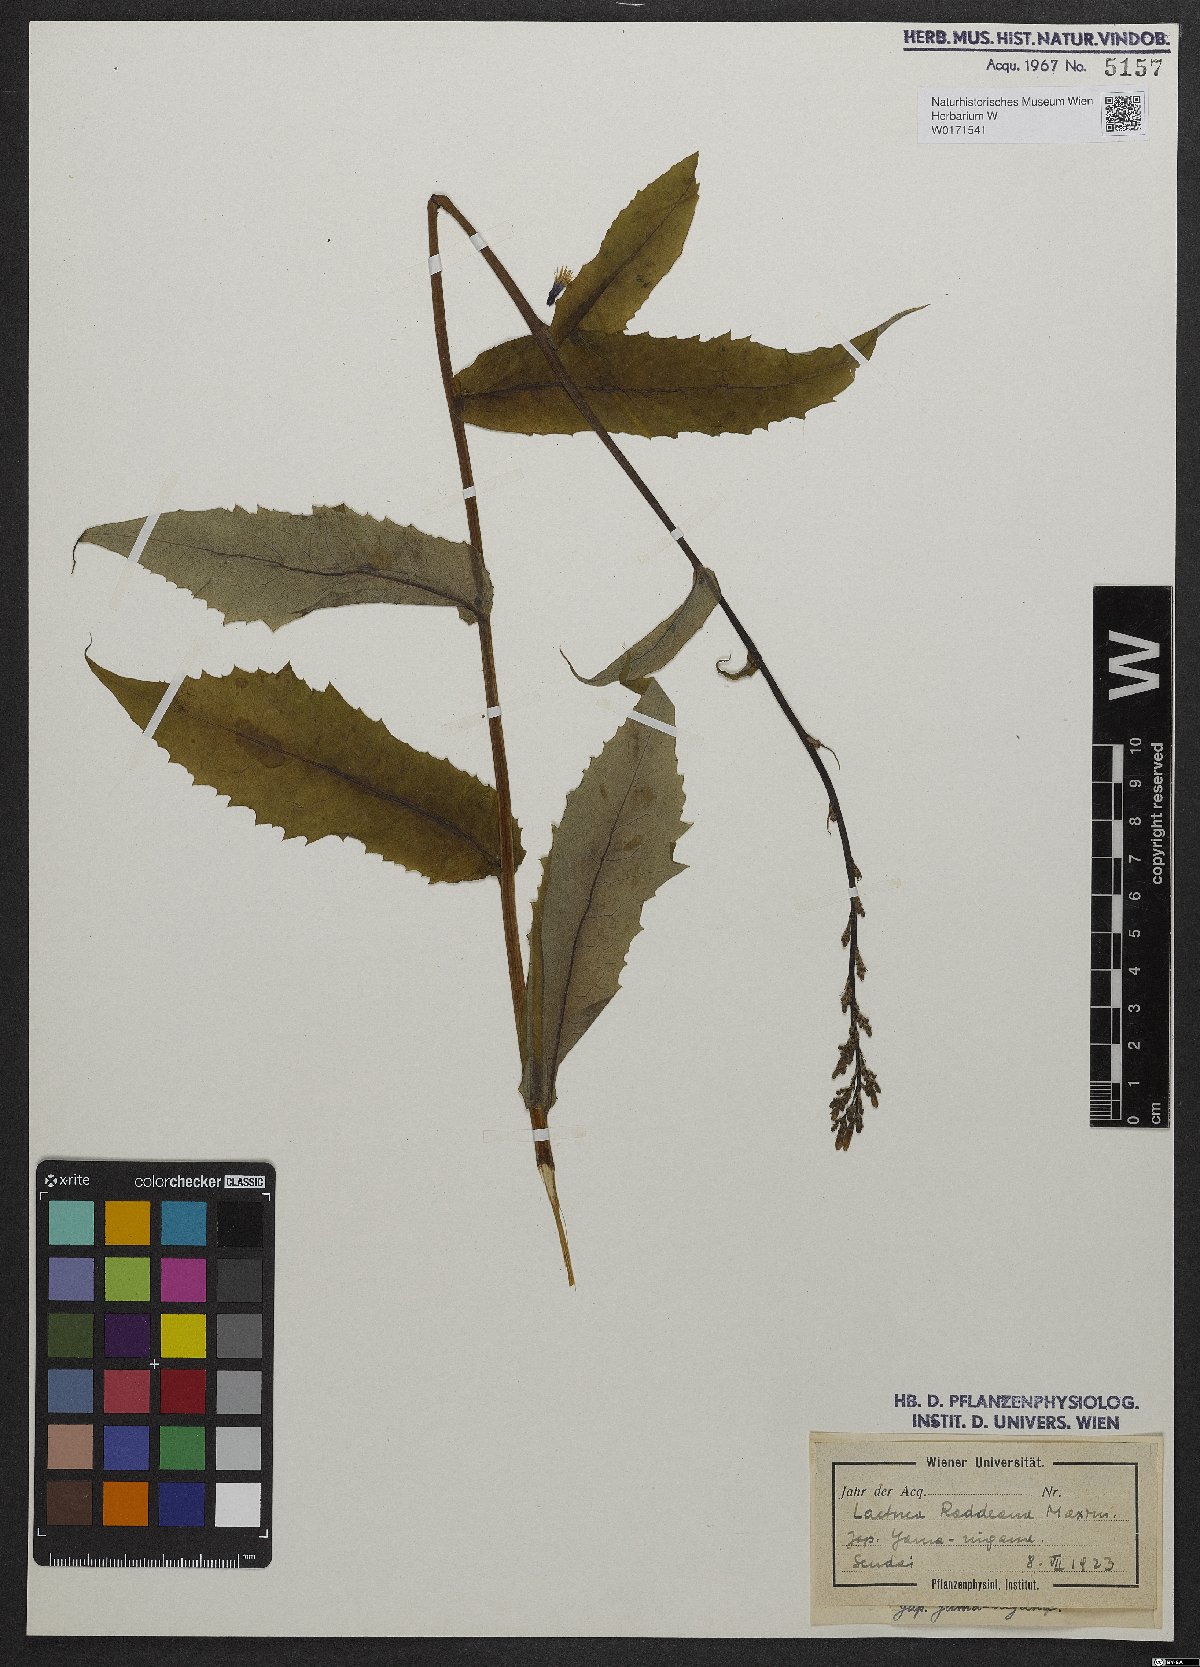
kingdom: Plantae
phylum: Tracheophyta
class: Magnoliopsida
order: Asterales
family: Asteraceae
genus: Lactuca
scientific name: Lactuca raddeana
